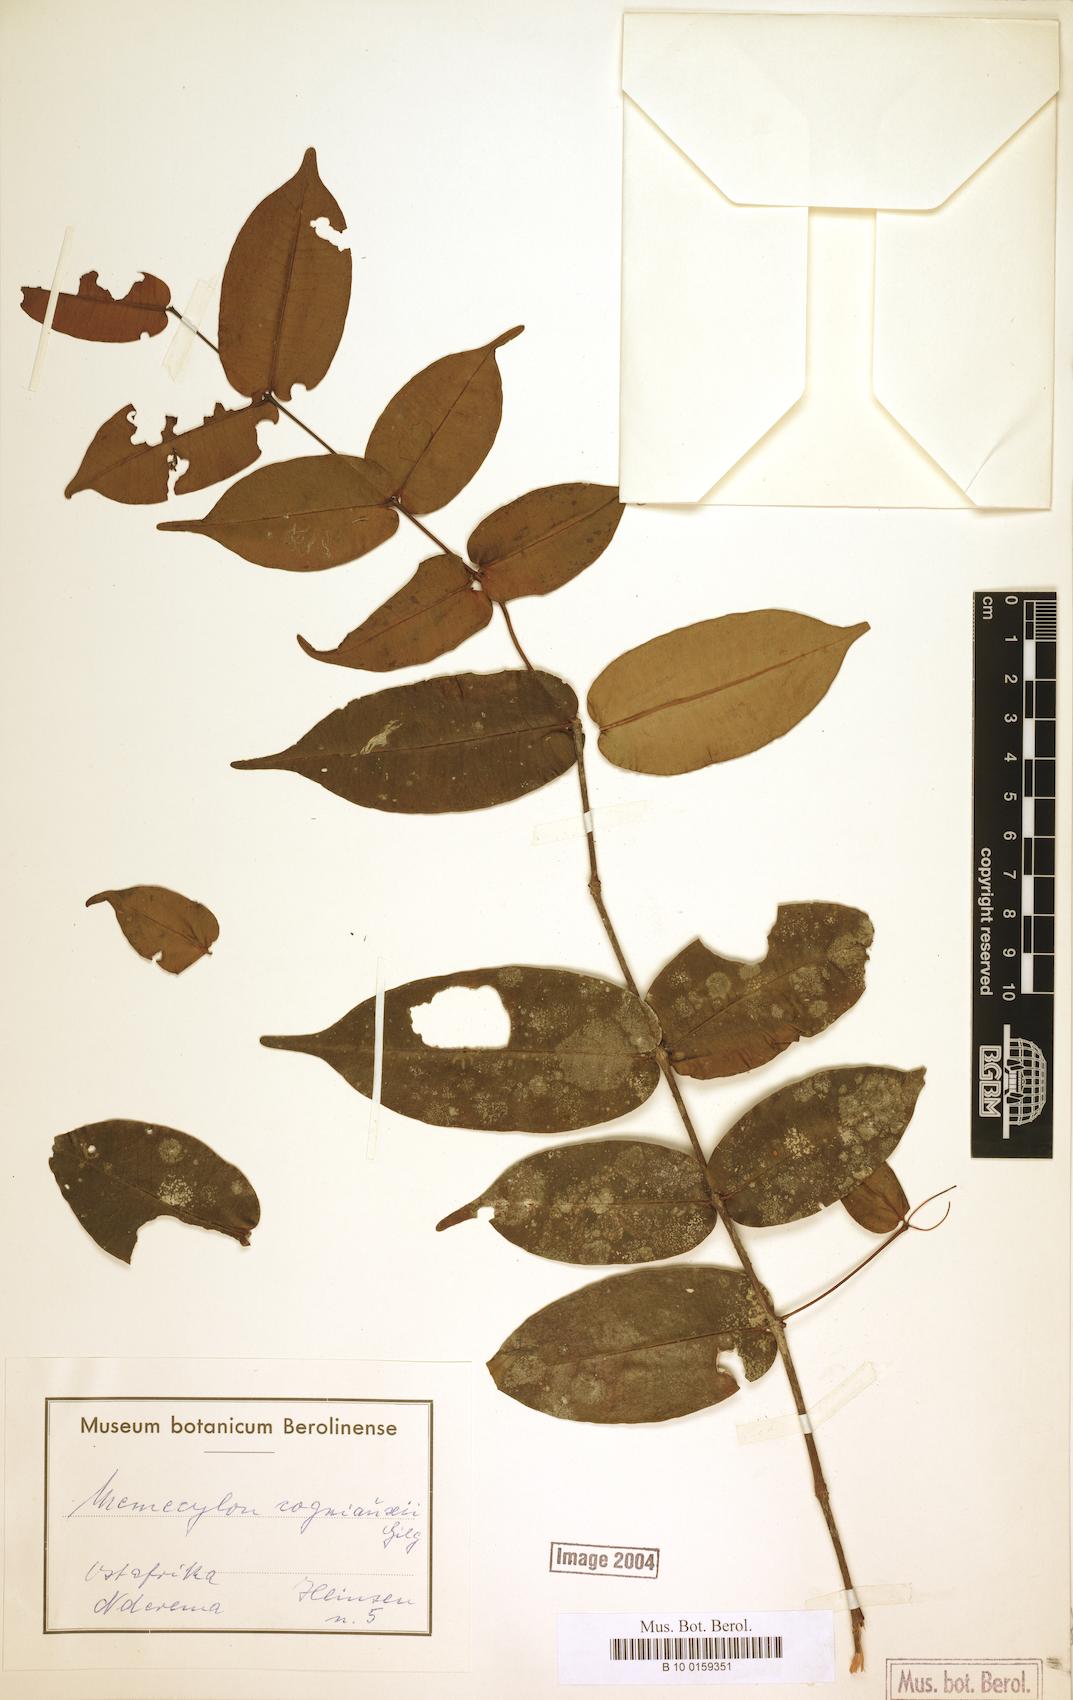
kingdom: Plantae
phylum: Tracheophyta
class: Magnoliopsida
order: Myrtales
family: Melastomataceae
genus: Memecylon
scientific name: Memecylon cogniauxii
